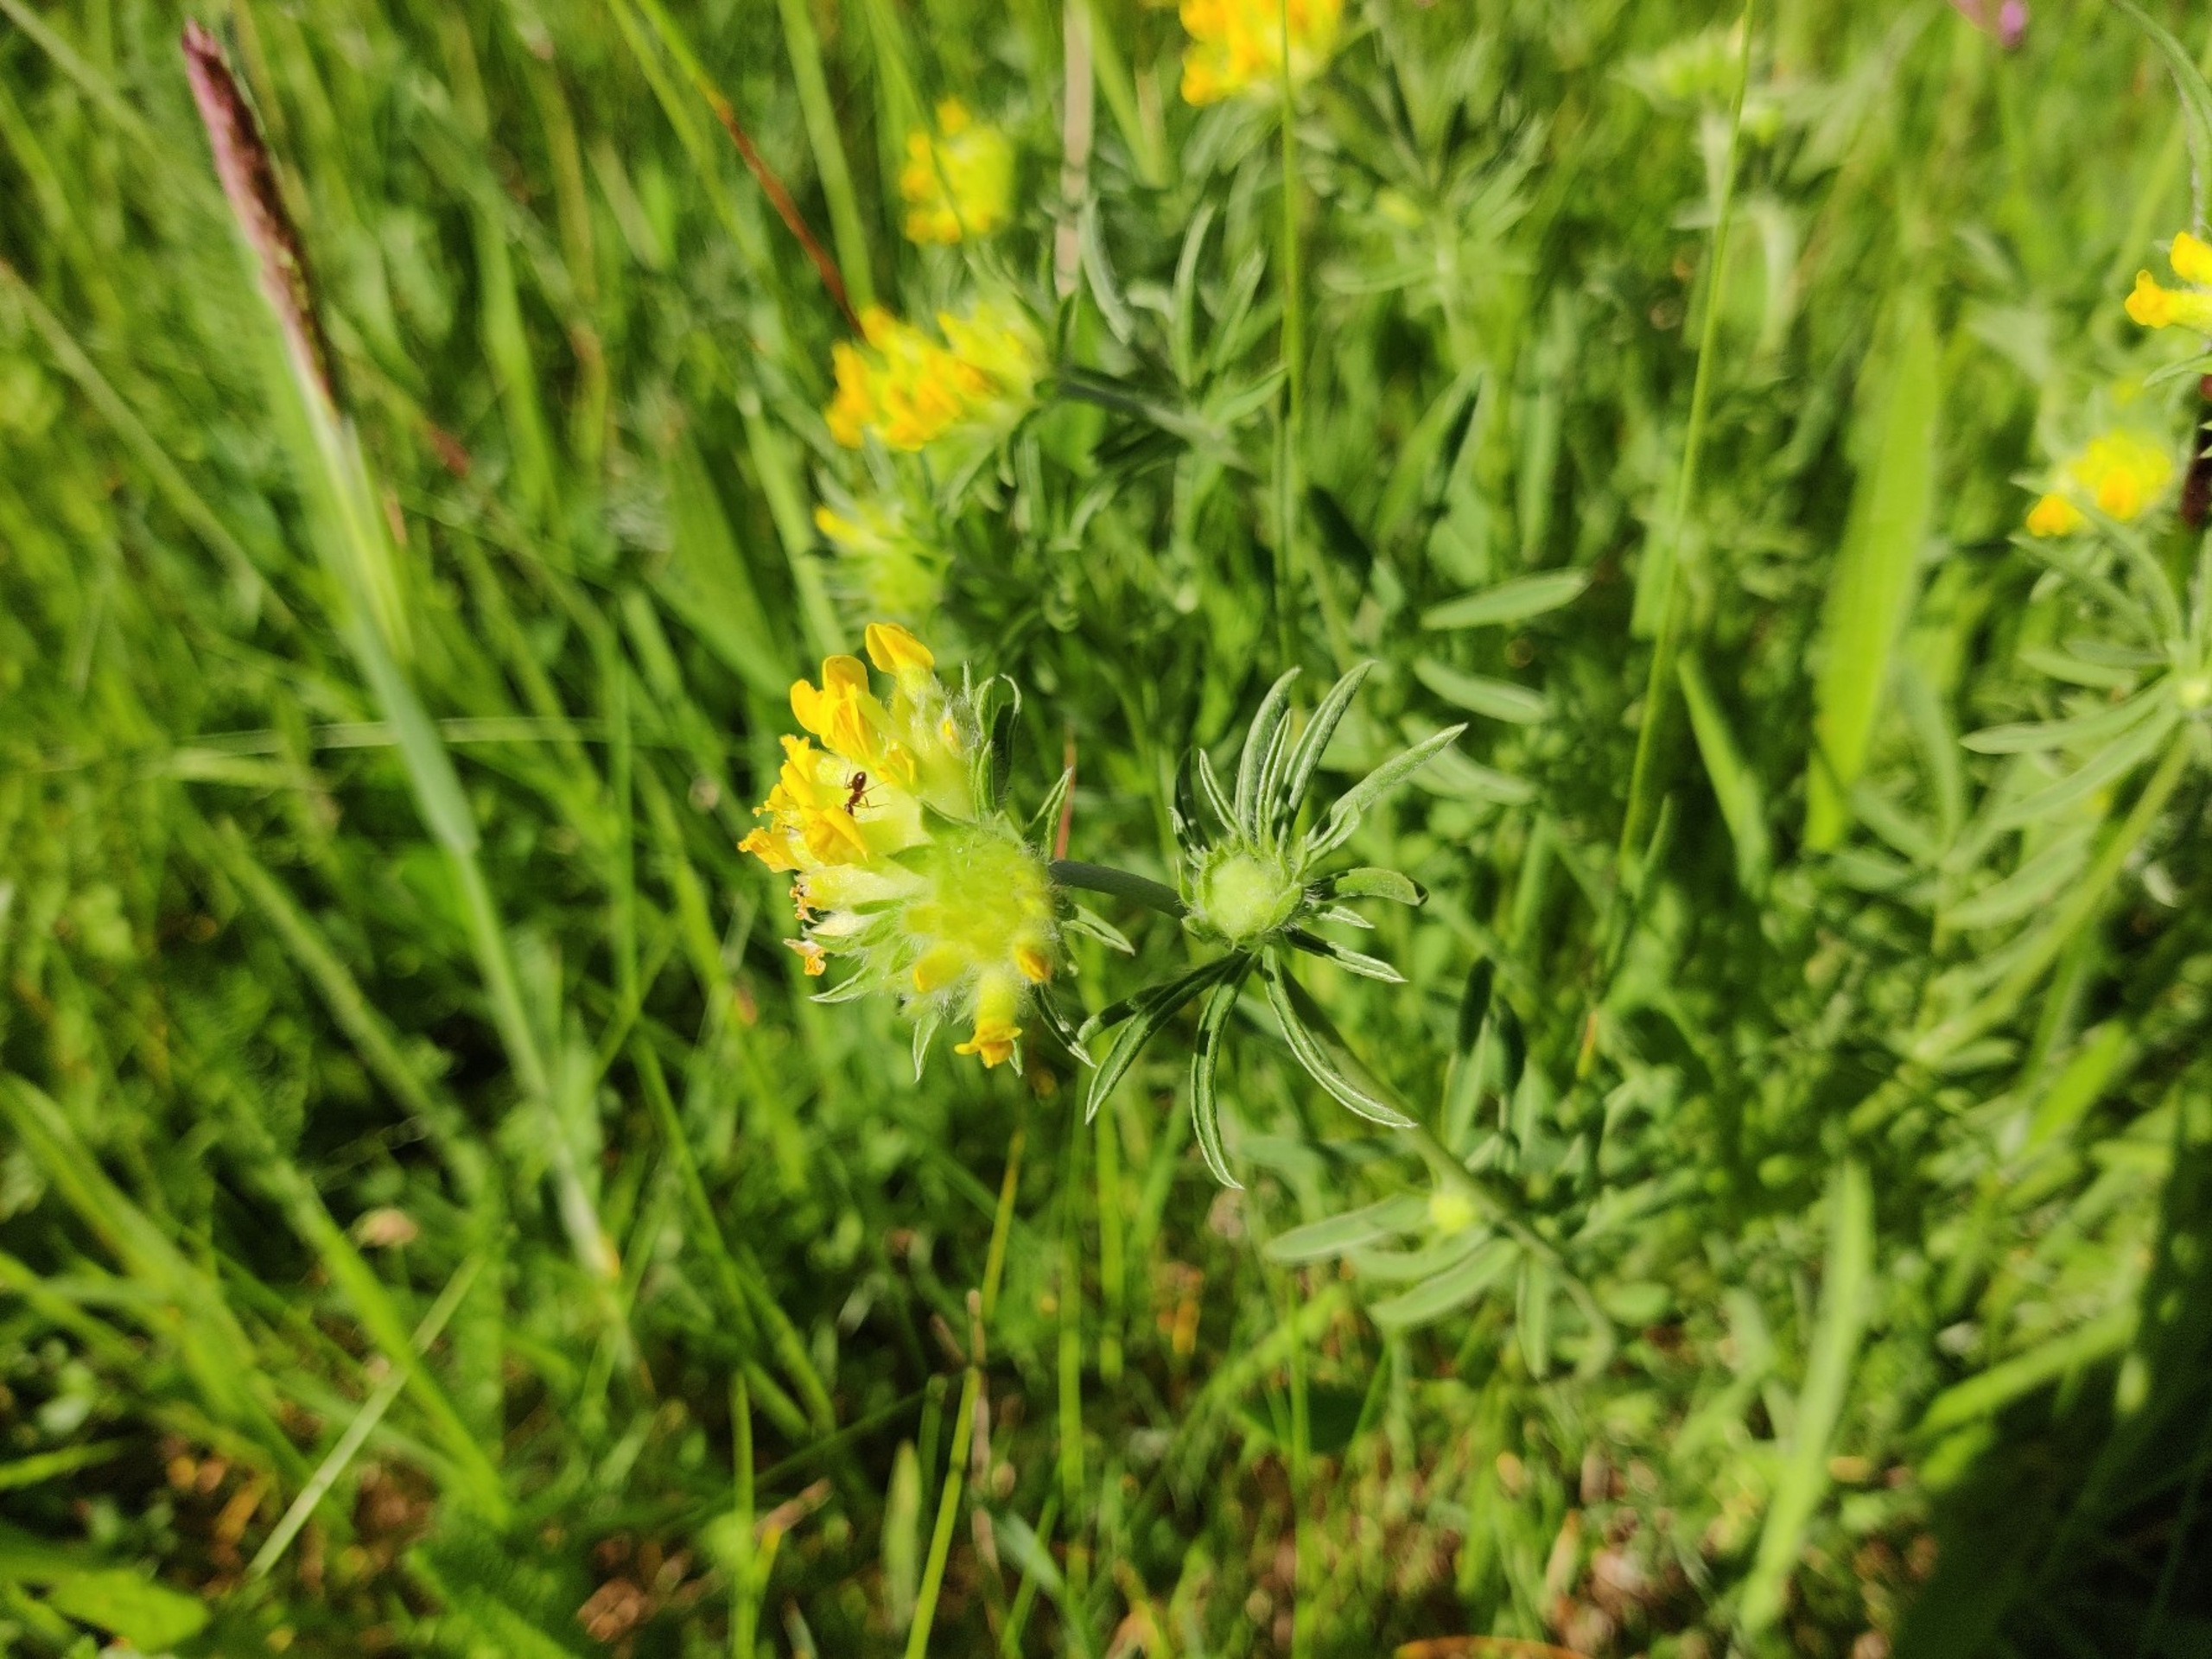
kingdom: Plantae
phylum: Tracheophyta
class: Magnoliopsida
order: Fabales
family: Fabaceae
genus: Anthyllis
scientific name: Anthyllis vulneraria
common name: Rundbælg
